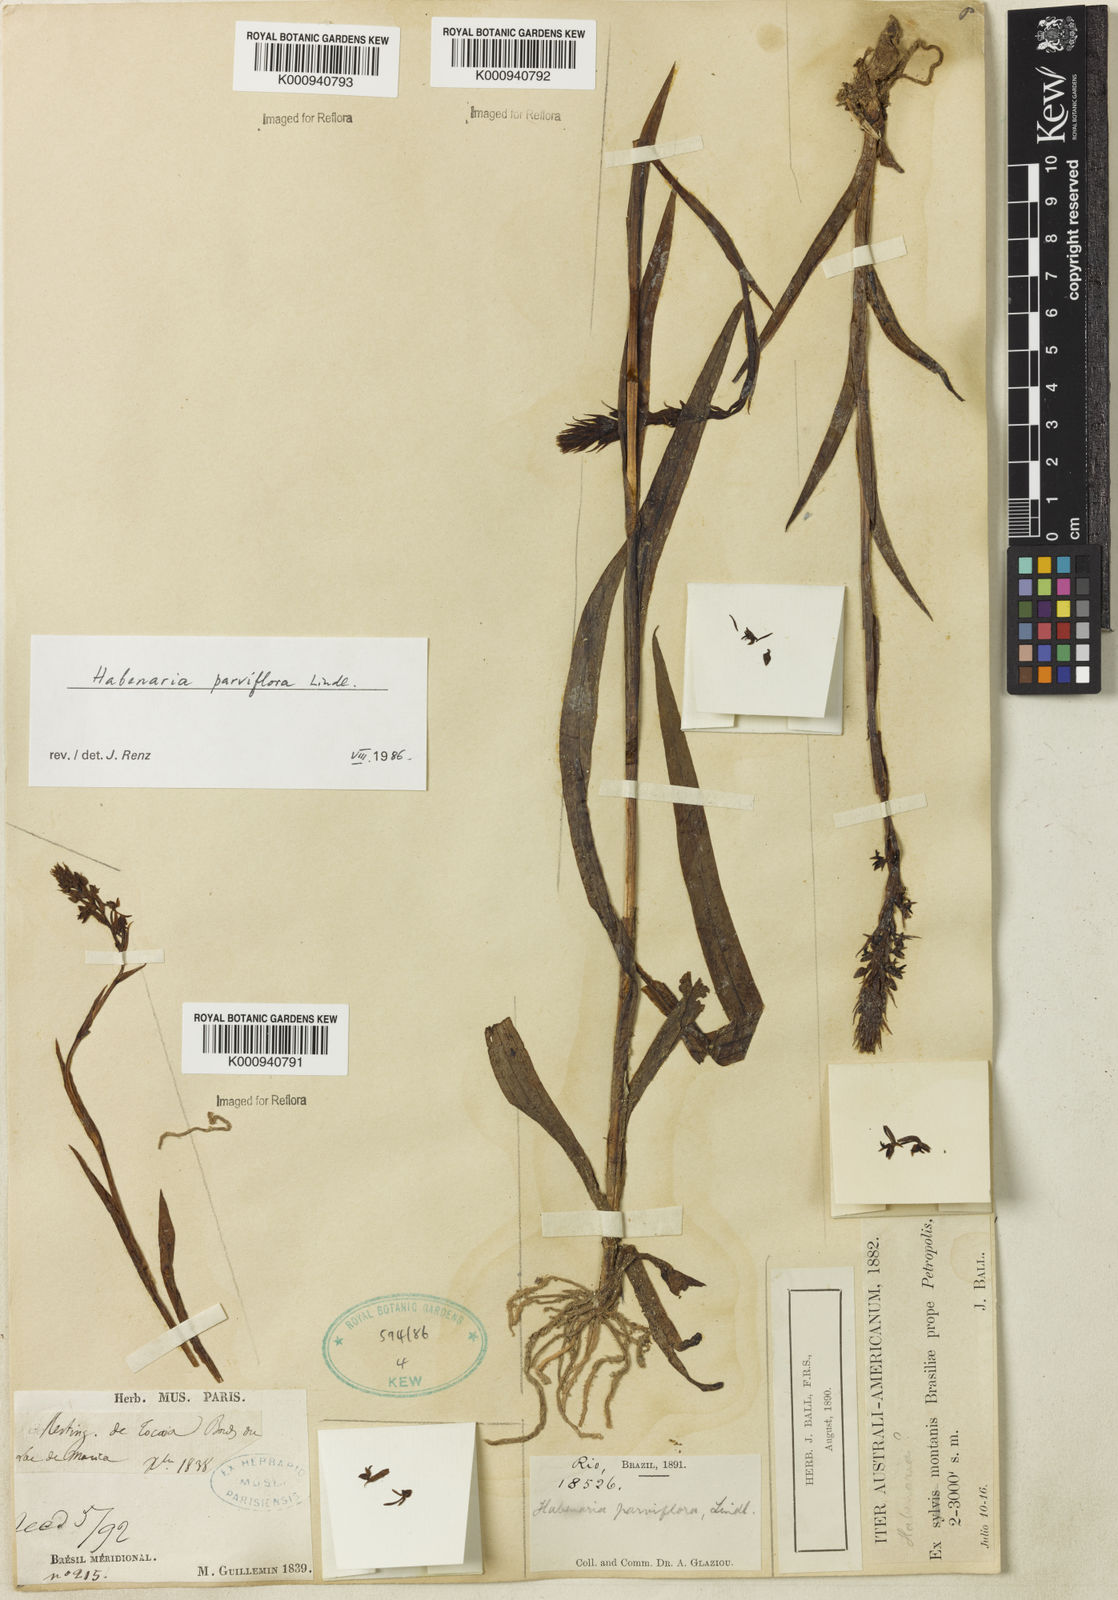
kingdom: Plantae
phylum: Tracheophyta
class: Liliopsida
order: Asparagales
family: Orchidaceae
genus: Habenaria
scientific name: Habenaria parviflora
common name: Small flowered habenaria
